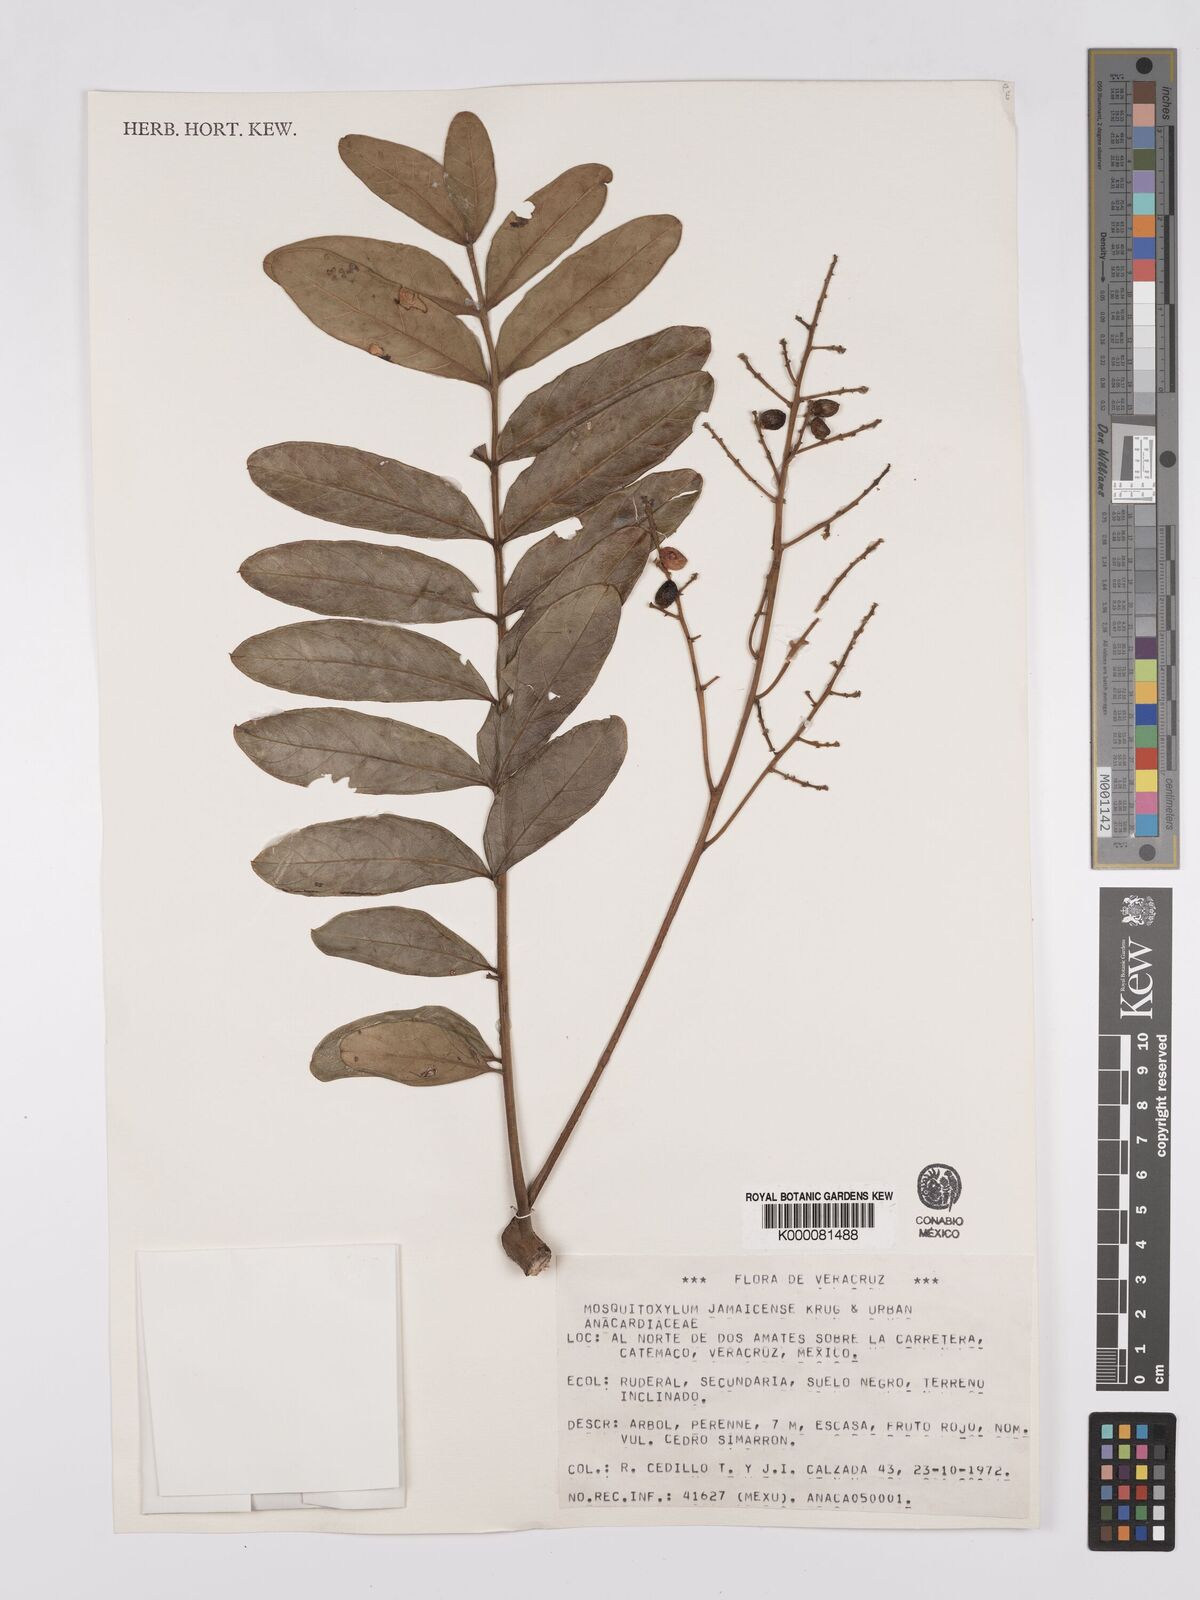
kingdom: Plantae
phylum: Tracheophyta
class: Magnoliopsida
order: Sapindales
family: Anacardiaceae
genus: Mosquitoxylum
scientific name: Mosquitoxylum jamaicense
